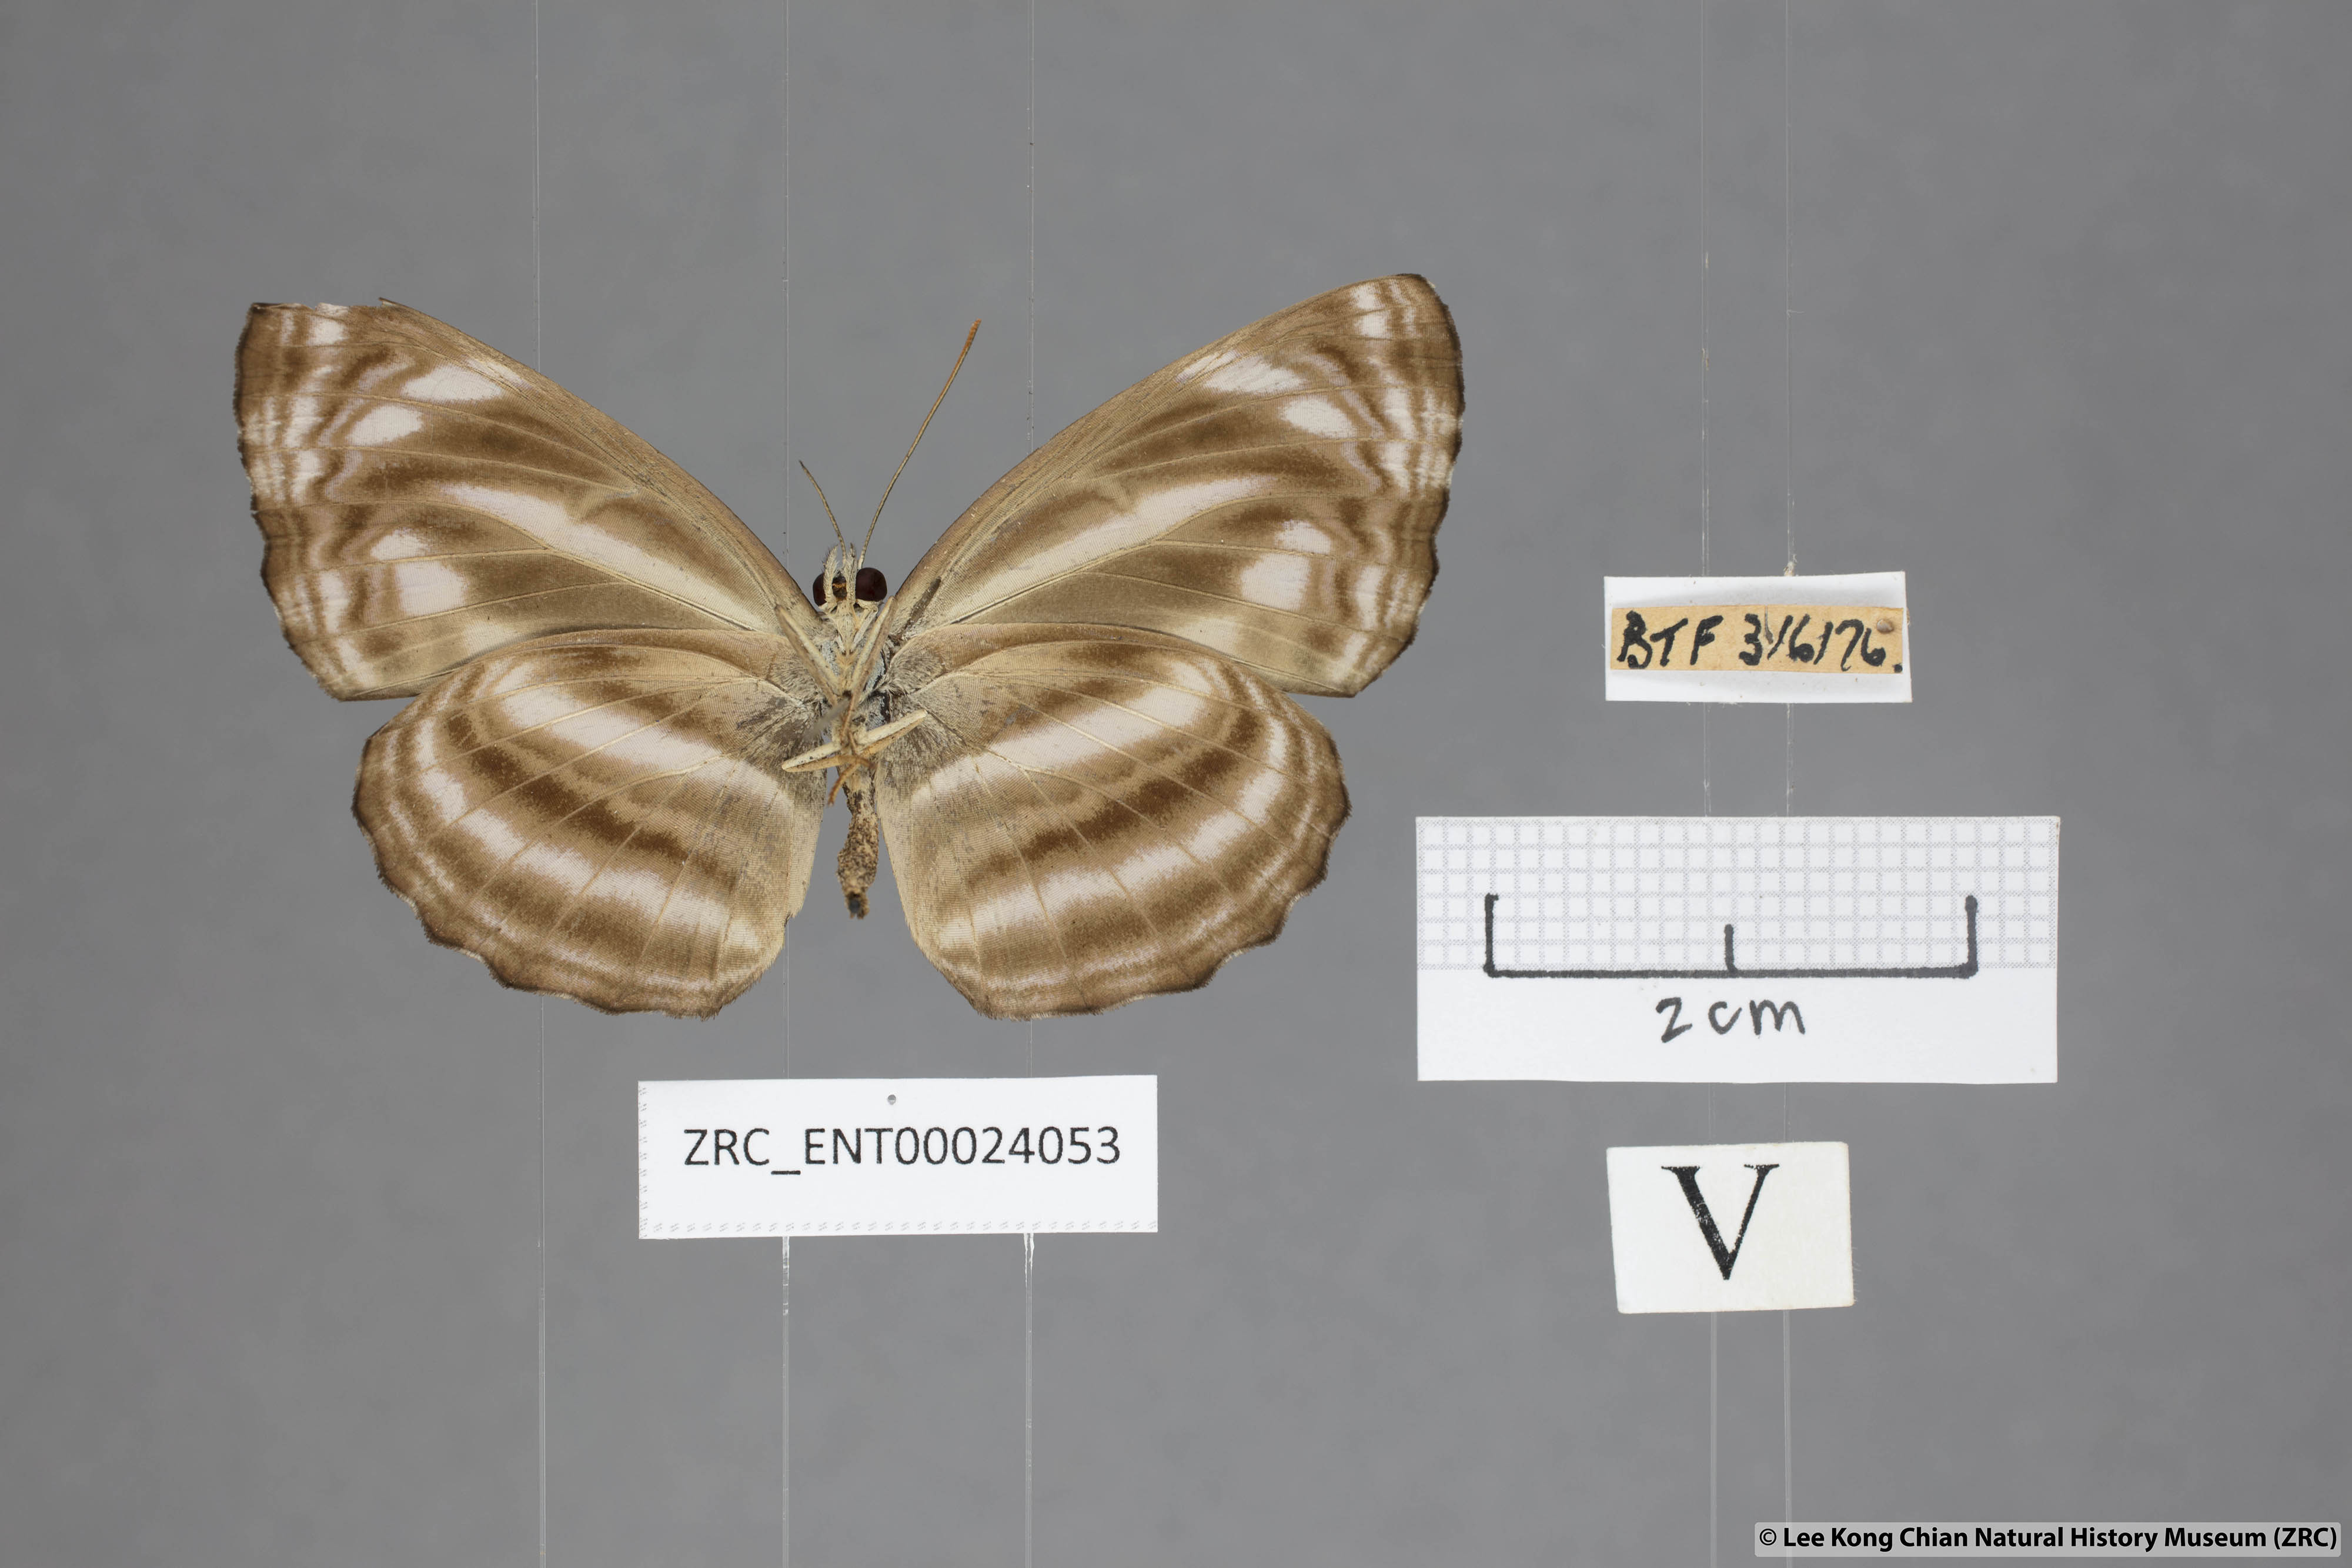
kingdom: Animalia
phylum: Arthropoda
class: Insecta
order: Lepidoptera
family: Nymphalidae
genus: Neptis
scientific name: Neptis omeroda
